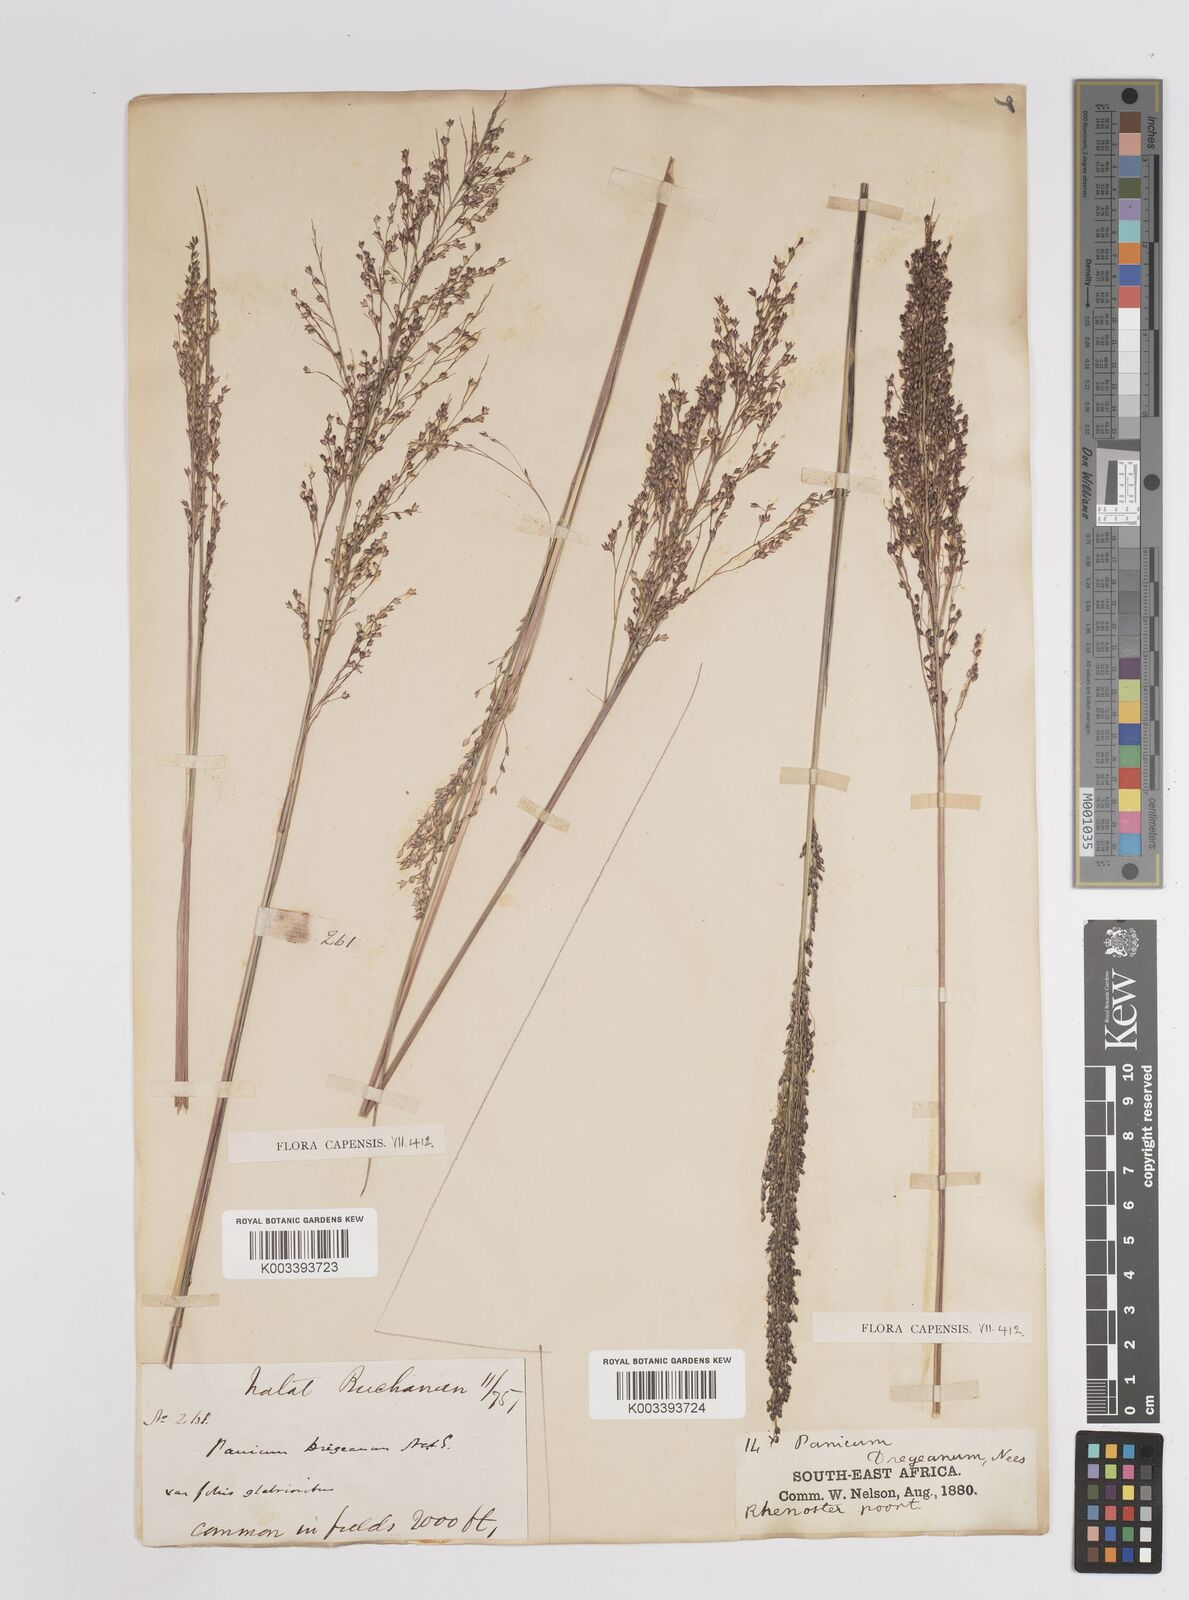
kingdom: Plantae
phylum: Tracheophyta
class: Liliopsida
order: Poales
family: Poaceae
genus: Panicum
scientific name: Panicum dregeanum
